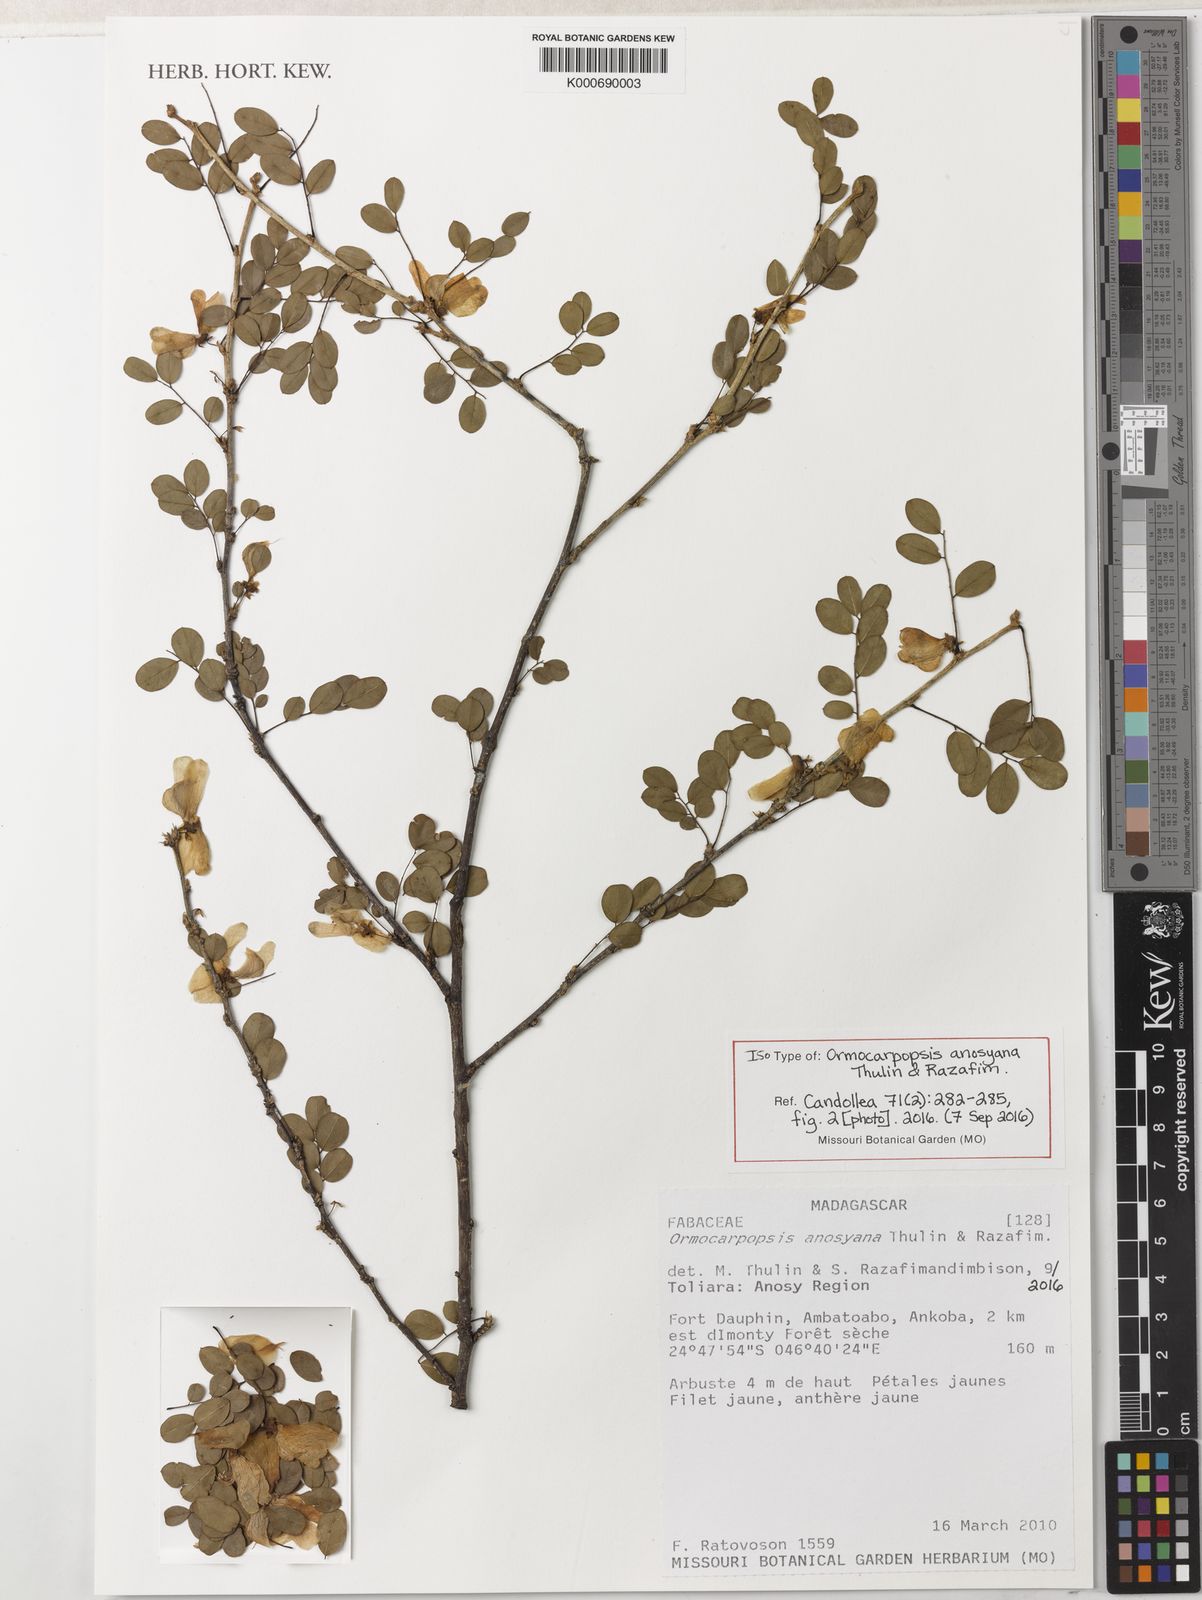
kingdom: Plantae
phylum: Tracheophyta
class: Magnoliopsida
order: Fabales
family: Fabaceae
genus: Ormocarpopsis
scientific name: Ormocarpopsis anosyana
